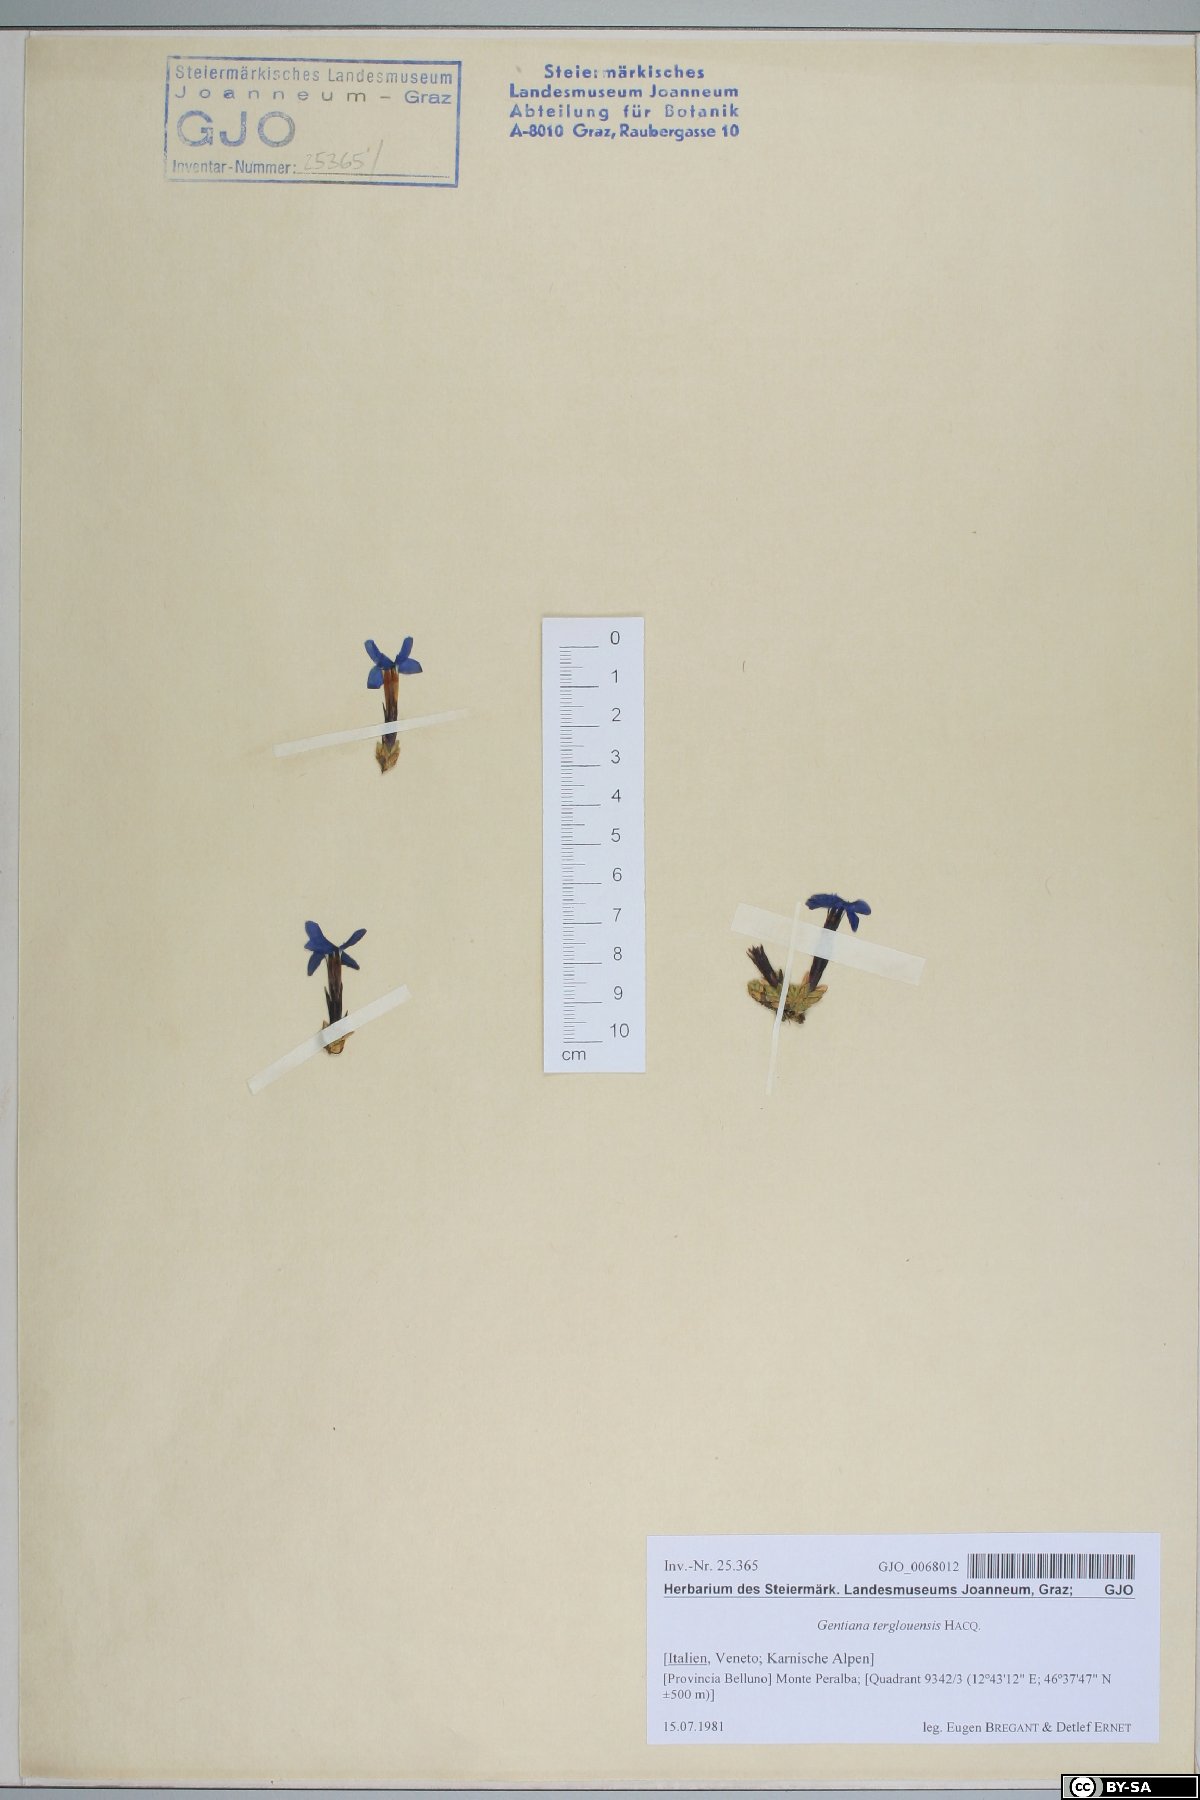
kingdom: Plantae
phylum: Tracheophyta
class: Magnoliopsida
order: Gentianales
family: Gentianaceae
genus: Gentiana
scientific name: Gentiana terglouensis
